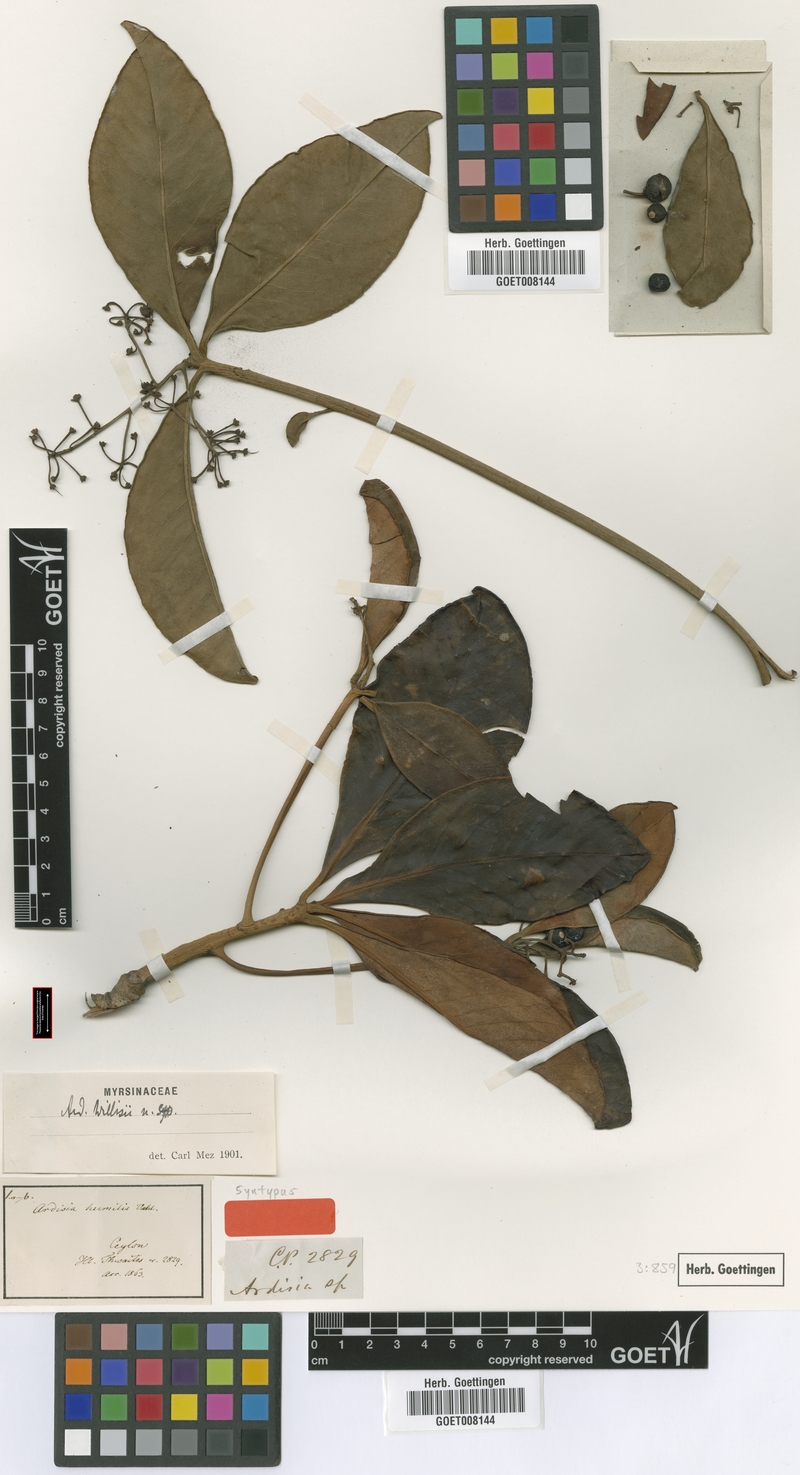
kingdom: Plantae
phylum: Tracheophyta
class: Magnoliopsida
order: Ericales
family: Primulaceae
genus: Ardisia
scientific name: Ardisia willisii
